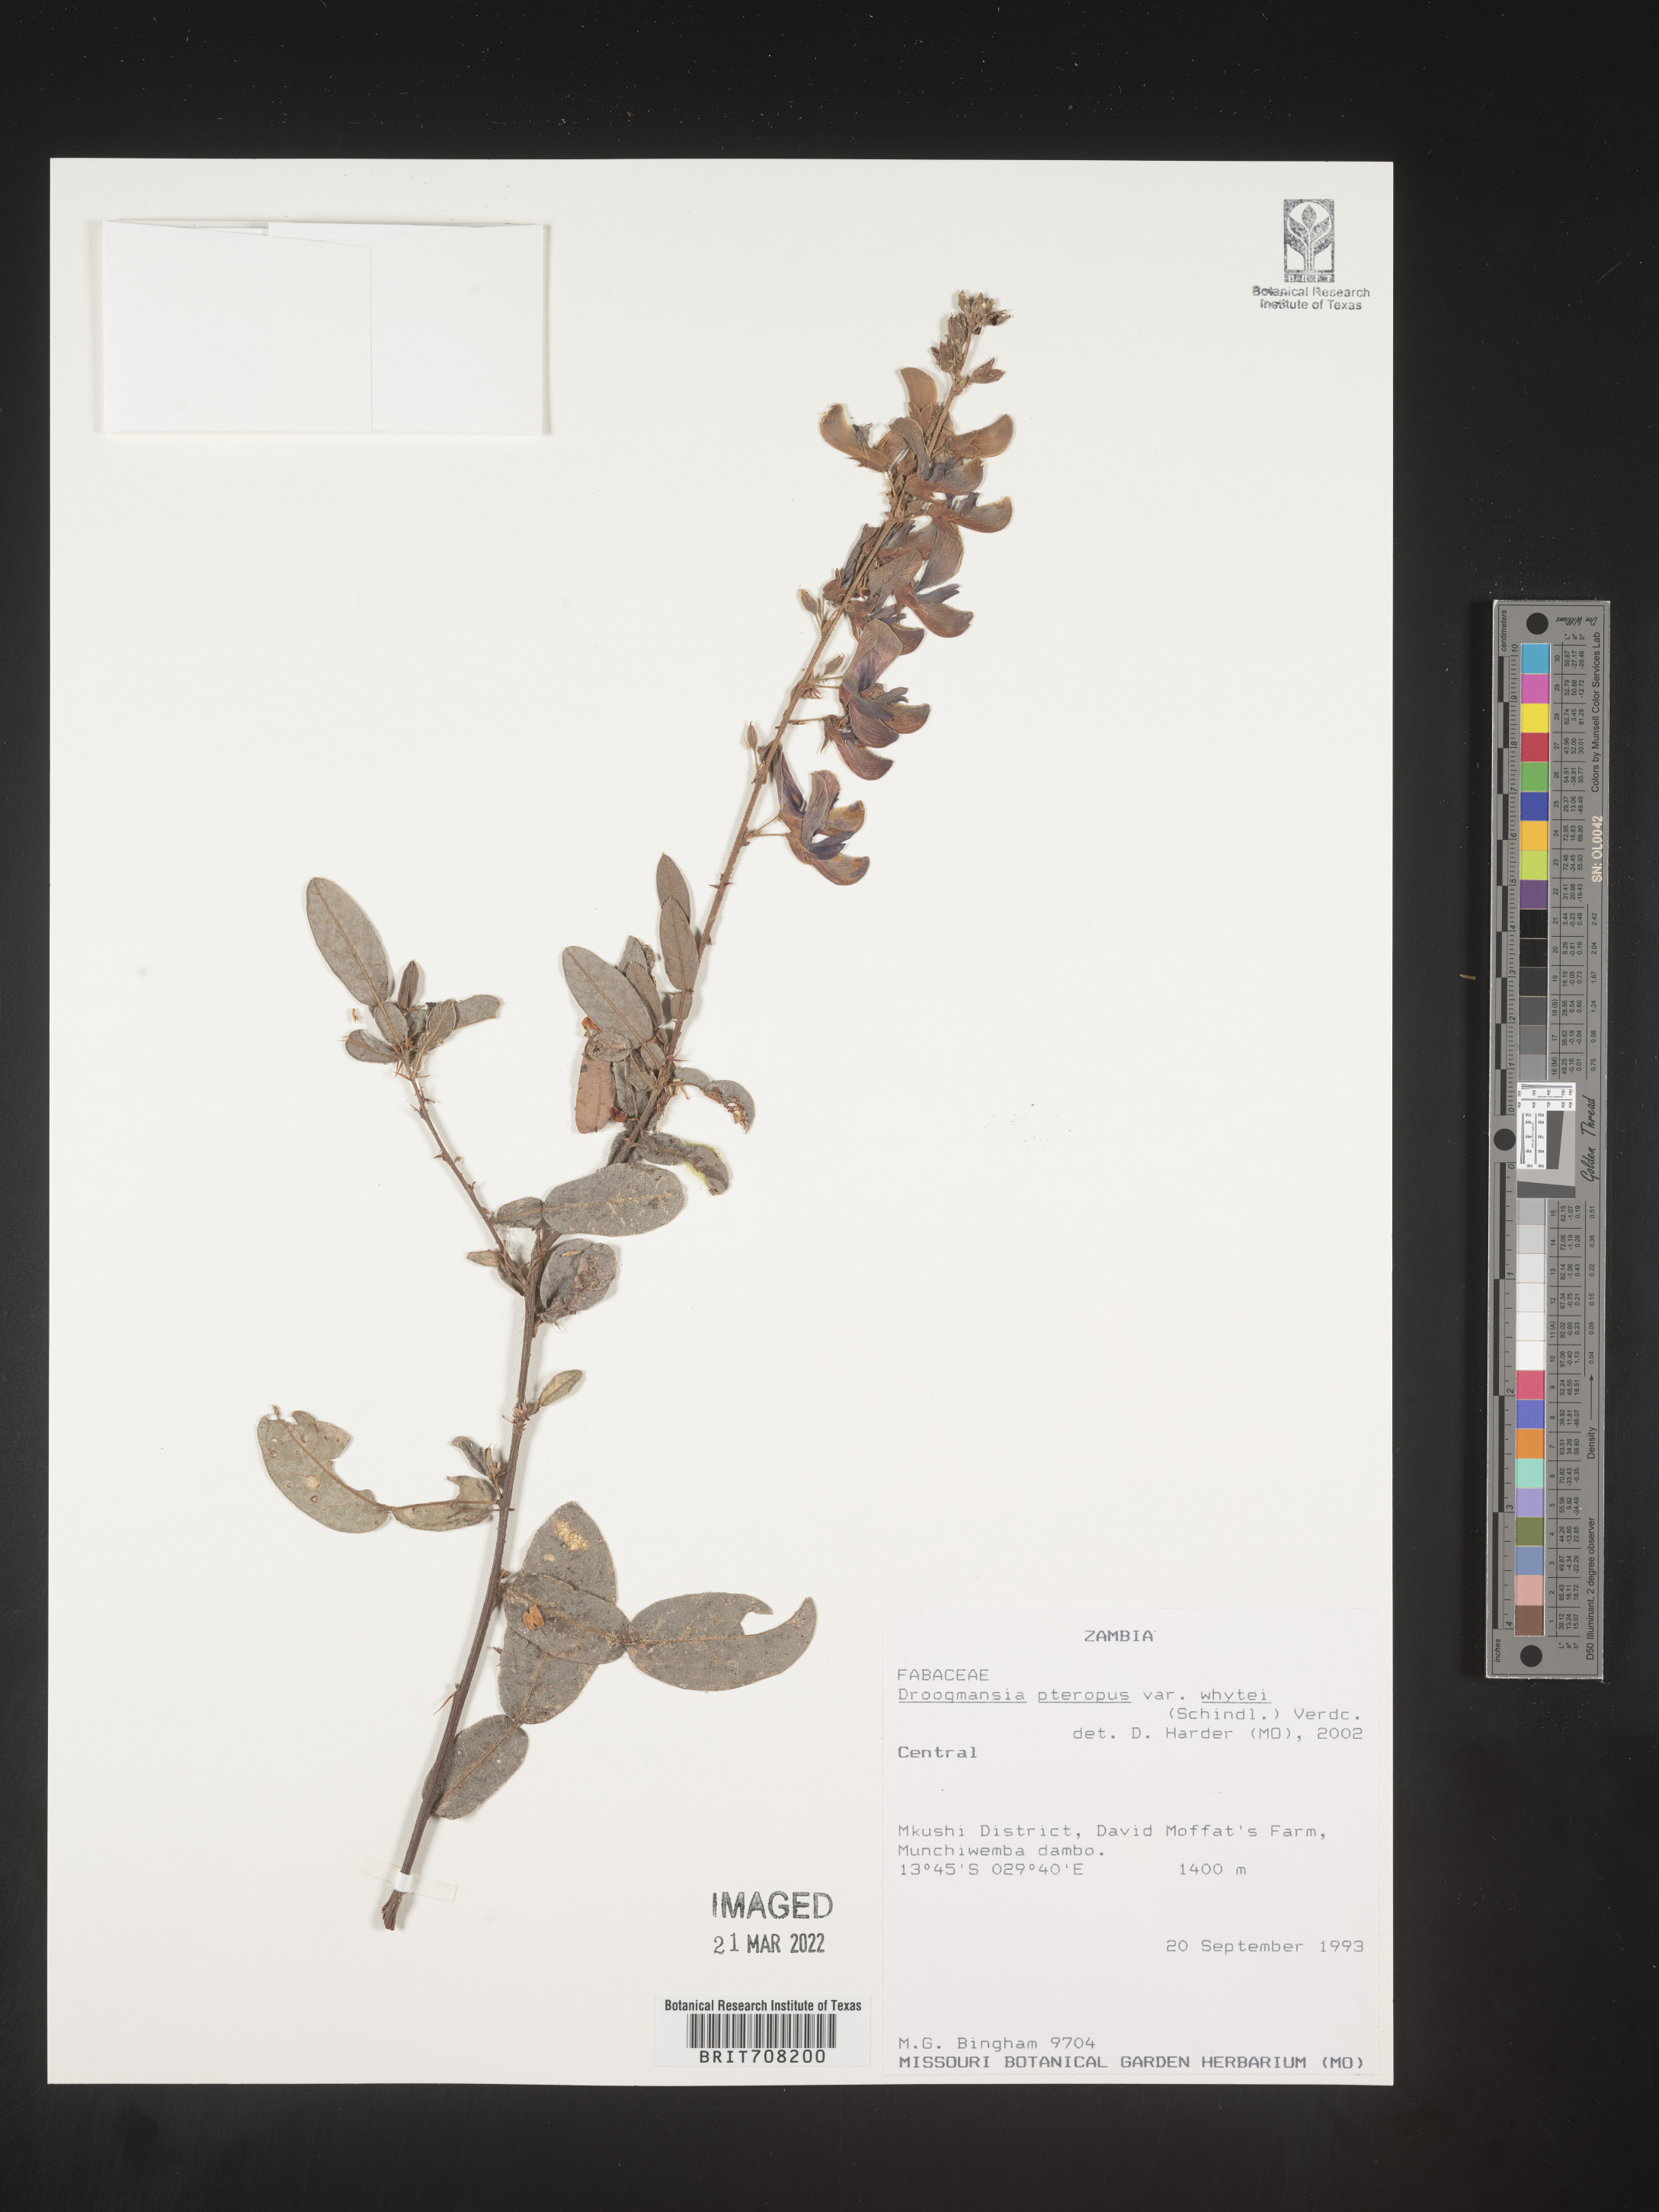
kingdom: Plantae
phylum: Tracheophyta
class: Magnoliopsida
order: Fabales
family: Fabaceae
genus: Droogmansia
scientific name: Droogmansia
